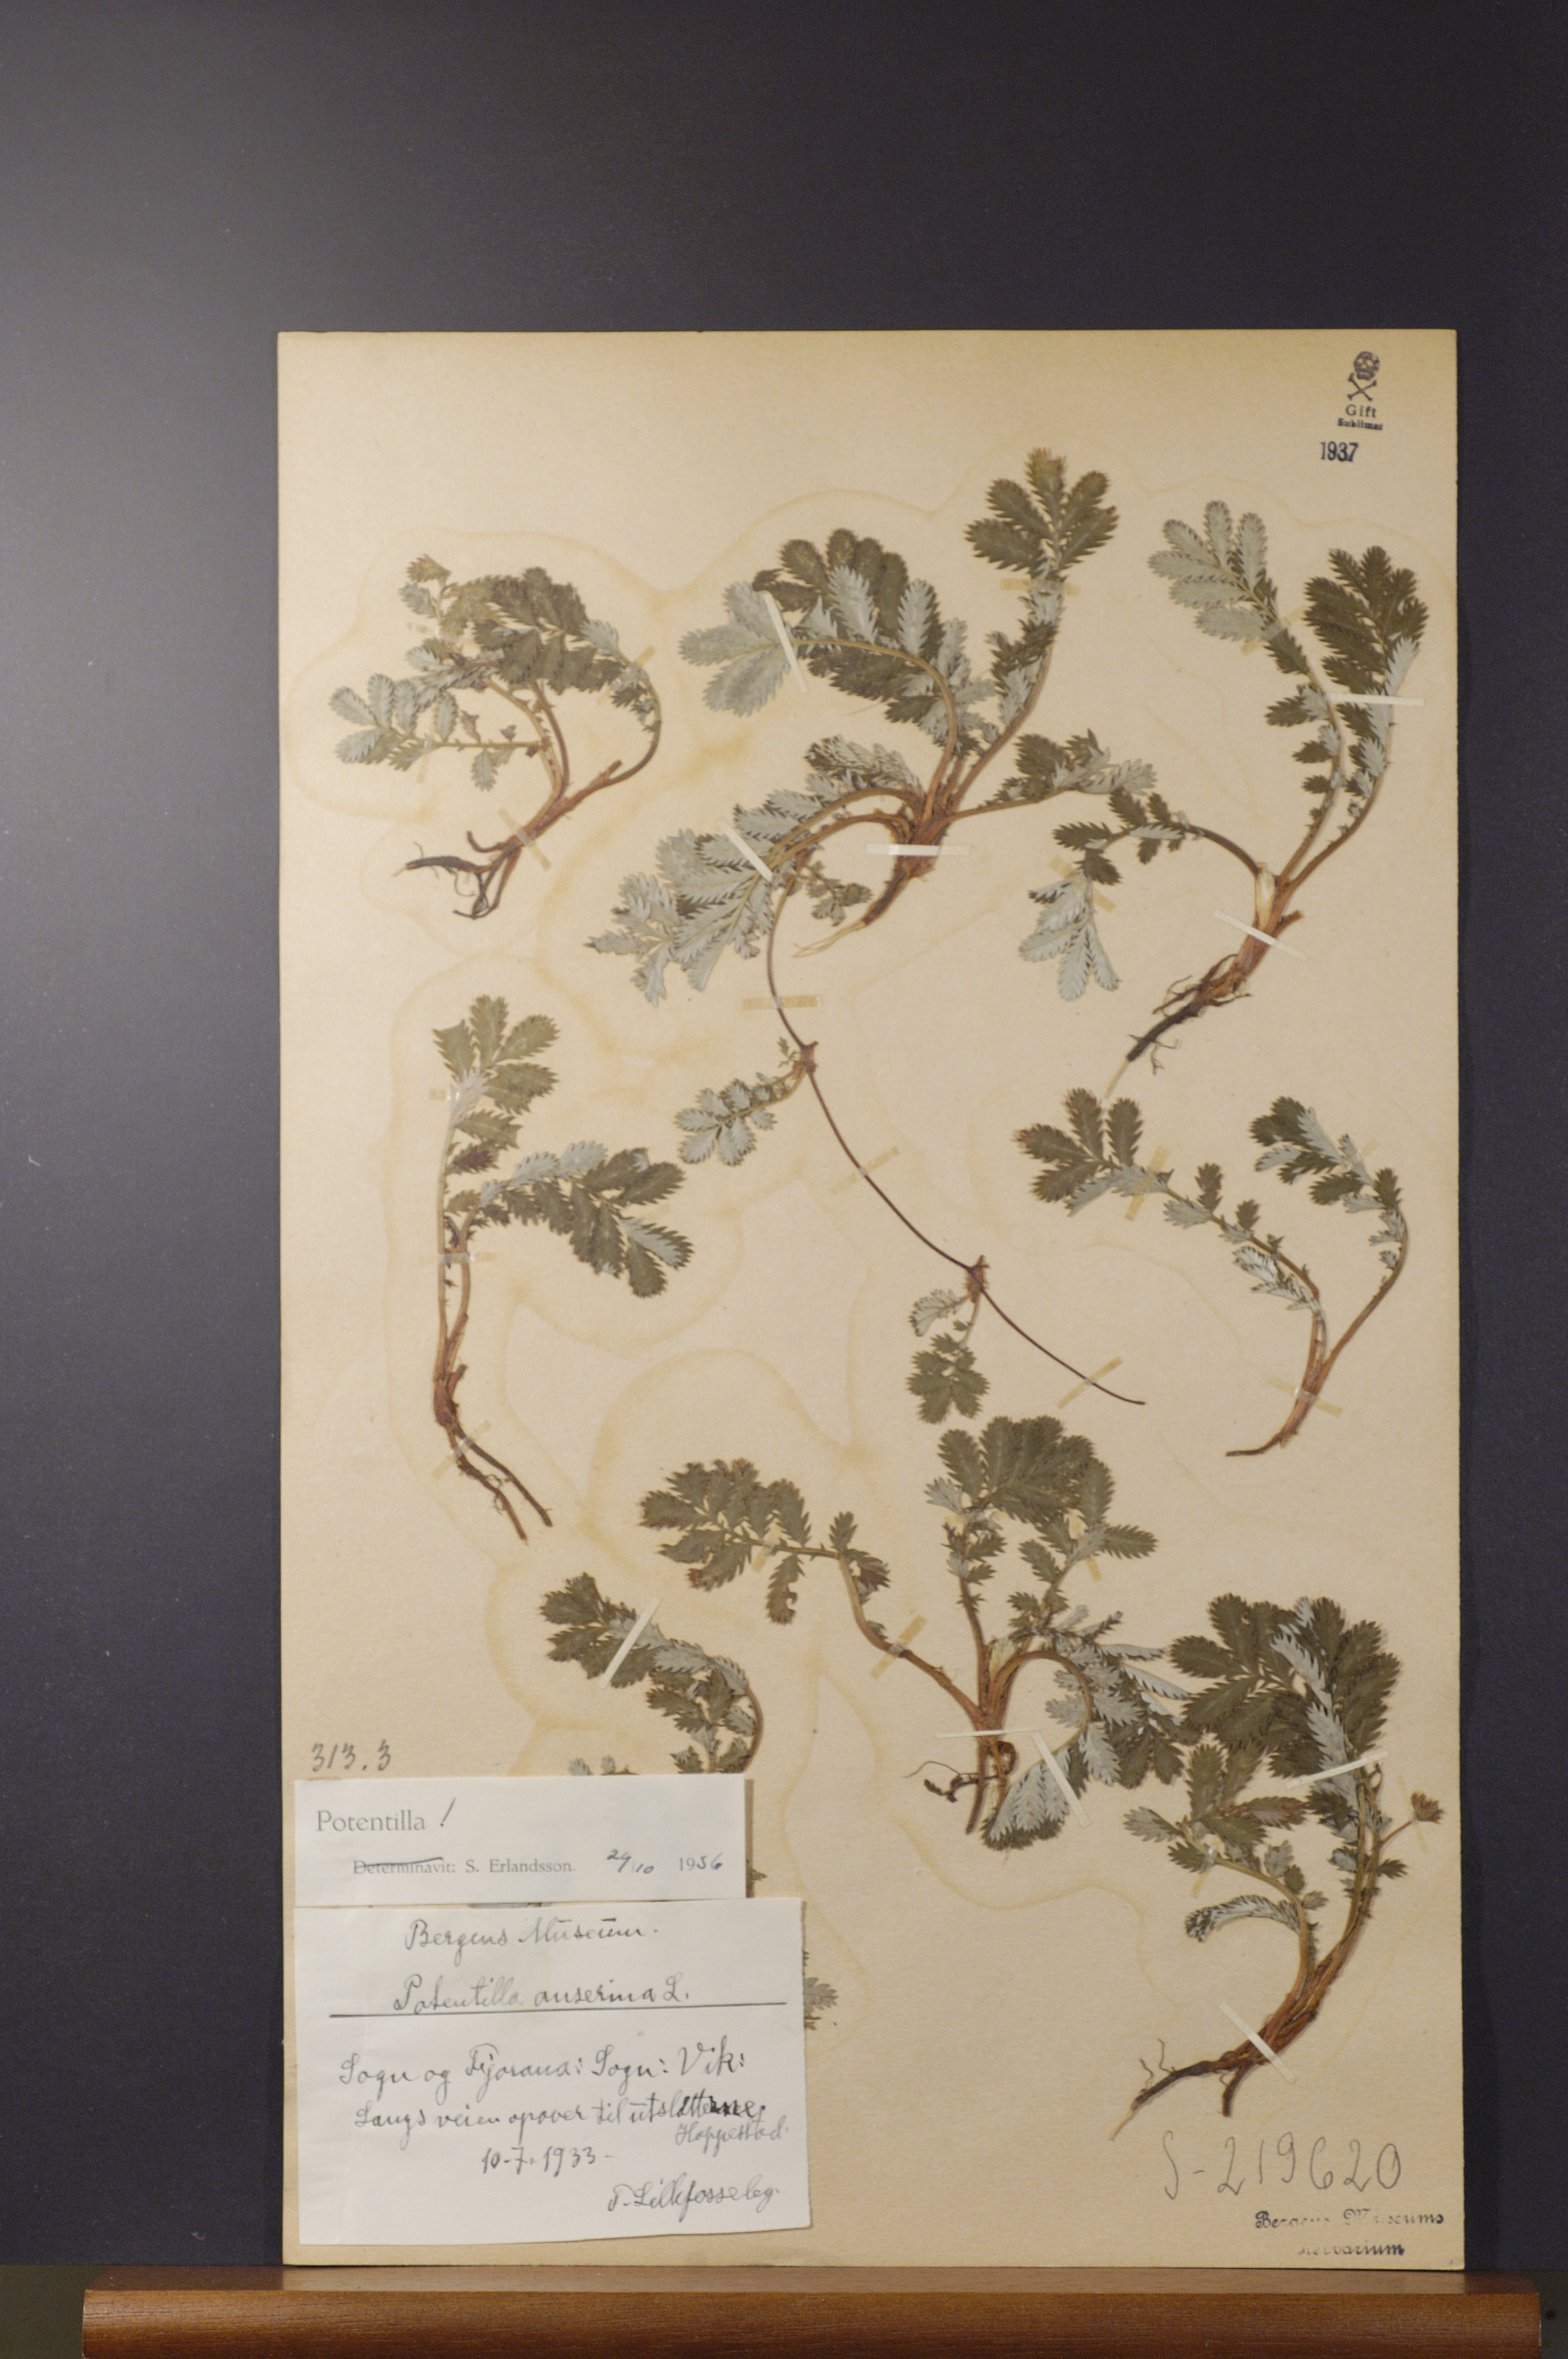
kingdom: Plantae
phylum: Tracheophyta
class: Magnoliopsida
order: Rosales
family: Rosaceae
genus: Argentina
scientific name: Argentina anserina
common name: Common silverweed
